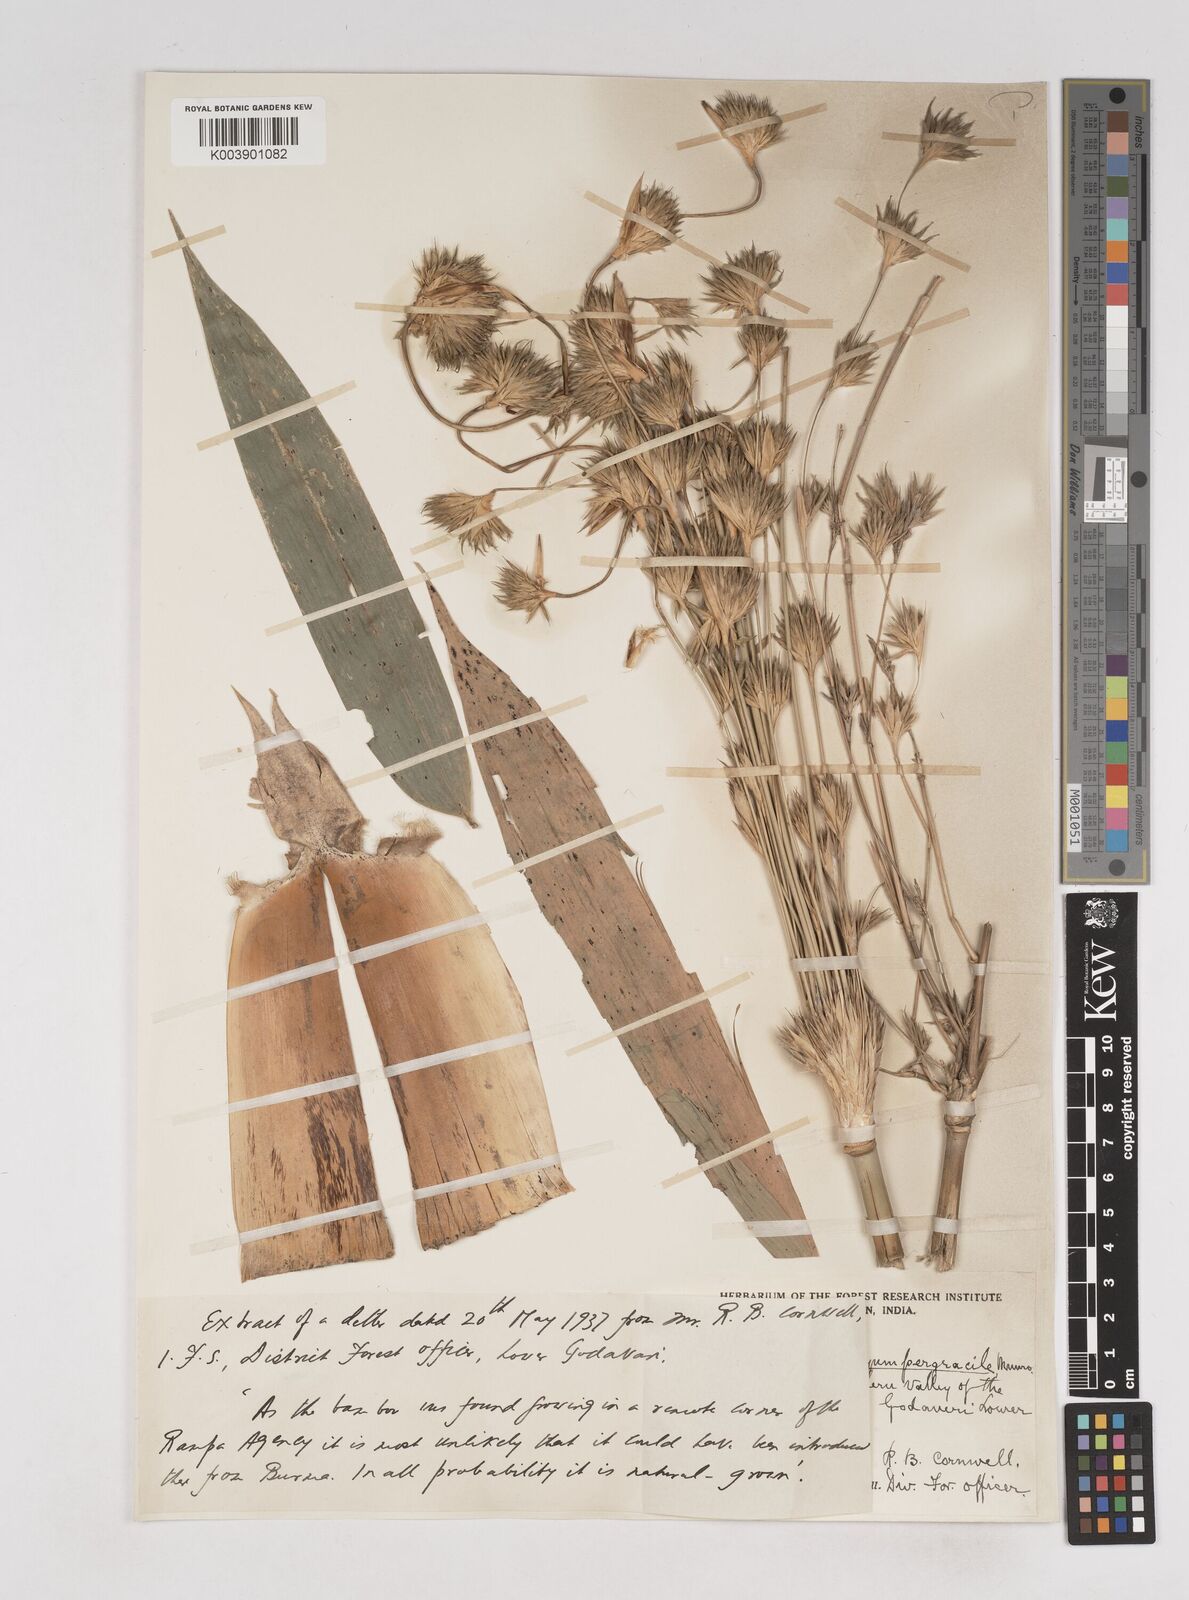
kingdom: Plantae
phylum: Tracheophyta
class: Liliopsida
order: Poales
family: Poaceae
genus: Schizostachyum
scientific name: Schizostachyum pergracile
